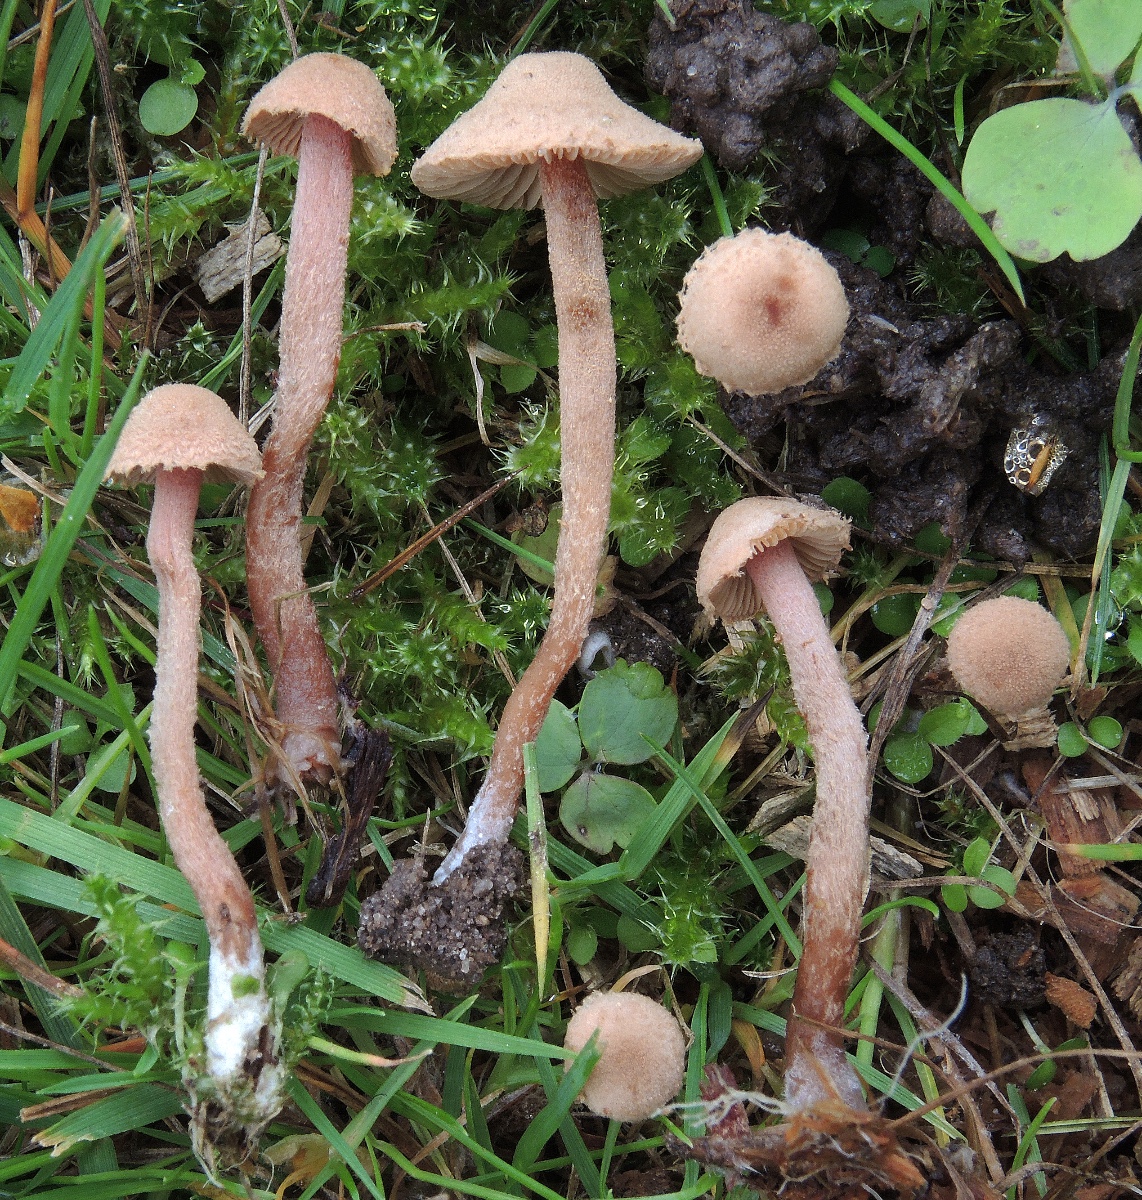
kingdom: Fungi
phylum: Basidiomycota
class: Agaricomycetes
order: Agaricales
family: Tubariaceae
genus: Flammulaster
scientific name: Flammulaster carpophilus
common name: bøge-grynskælhat
